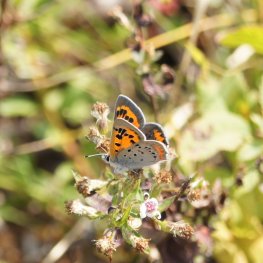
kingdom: Animalia
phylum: Arthropoda
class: Insecta
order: Lepidoptera
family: Lycaenidae
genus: Lycaena
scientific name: Lycaena phlaeas
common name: American Copper
